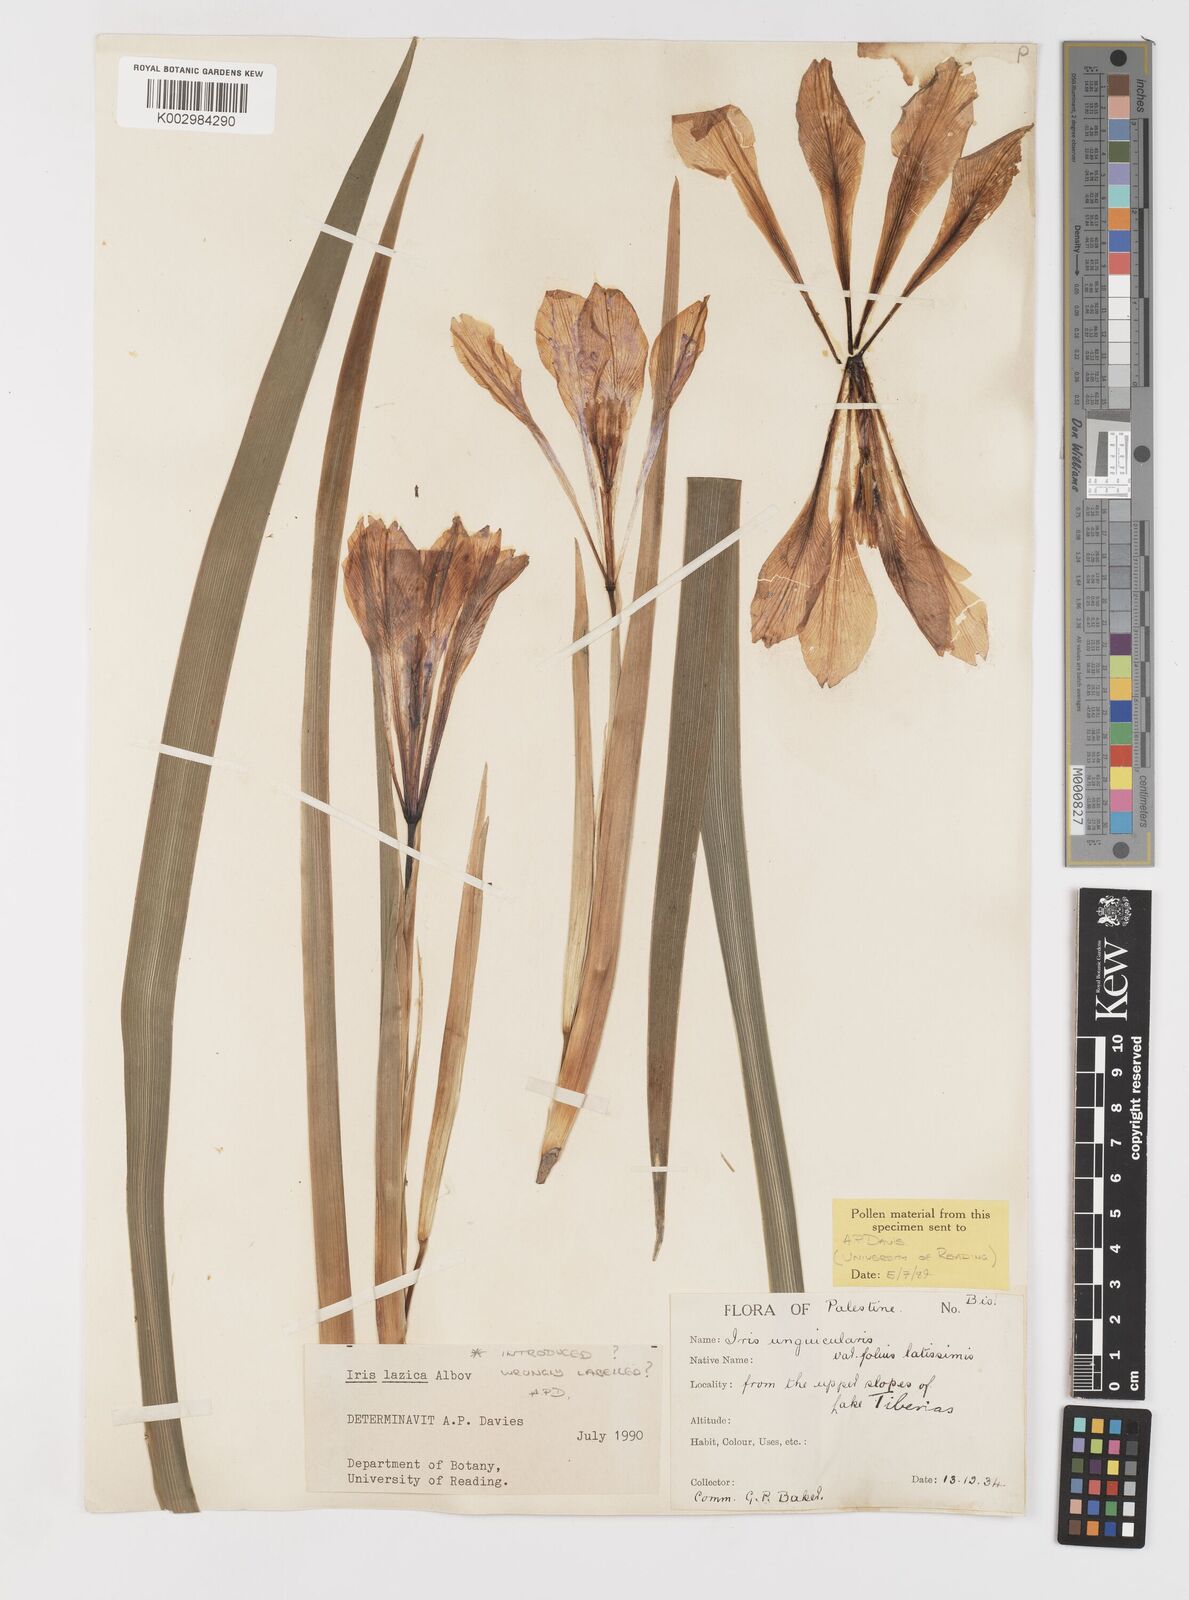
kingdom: Plantae
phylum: Tracheophyta
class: Liliopsida
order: Asparagales
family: Iridaceae
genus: Iris
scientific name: Iris lazica
